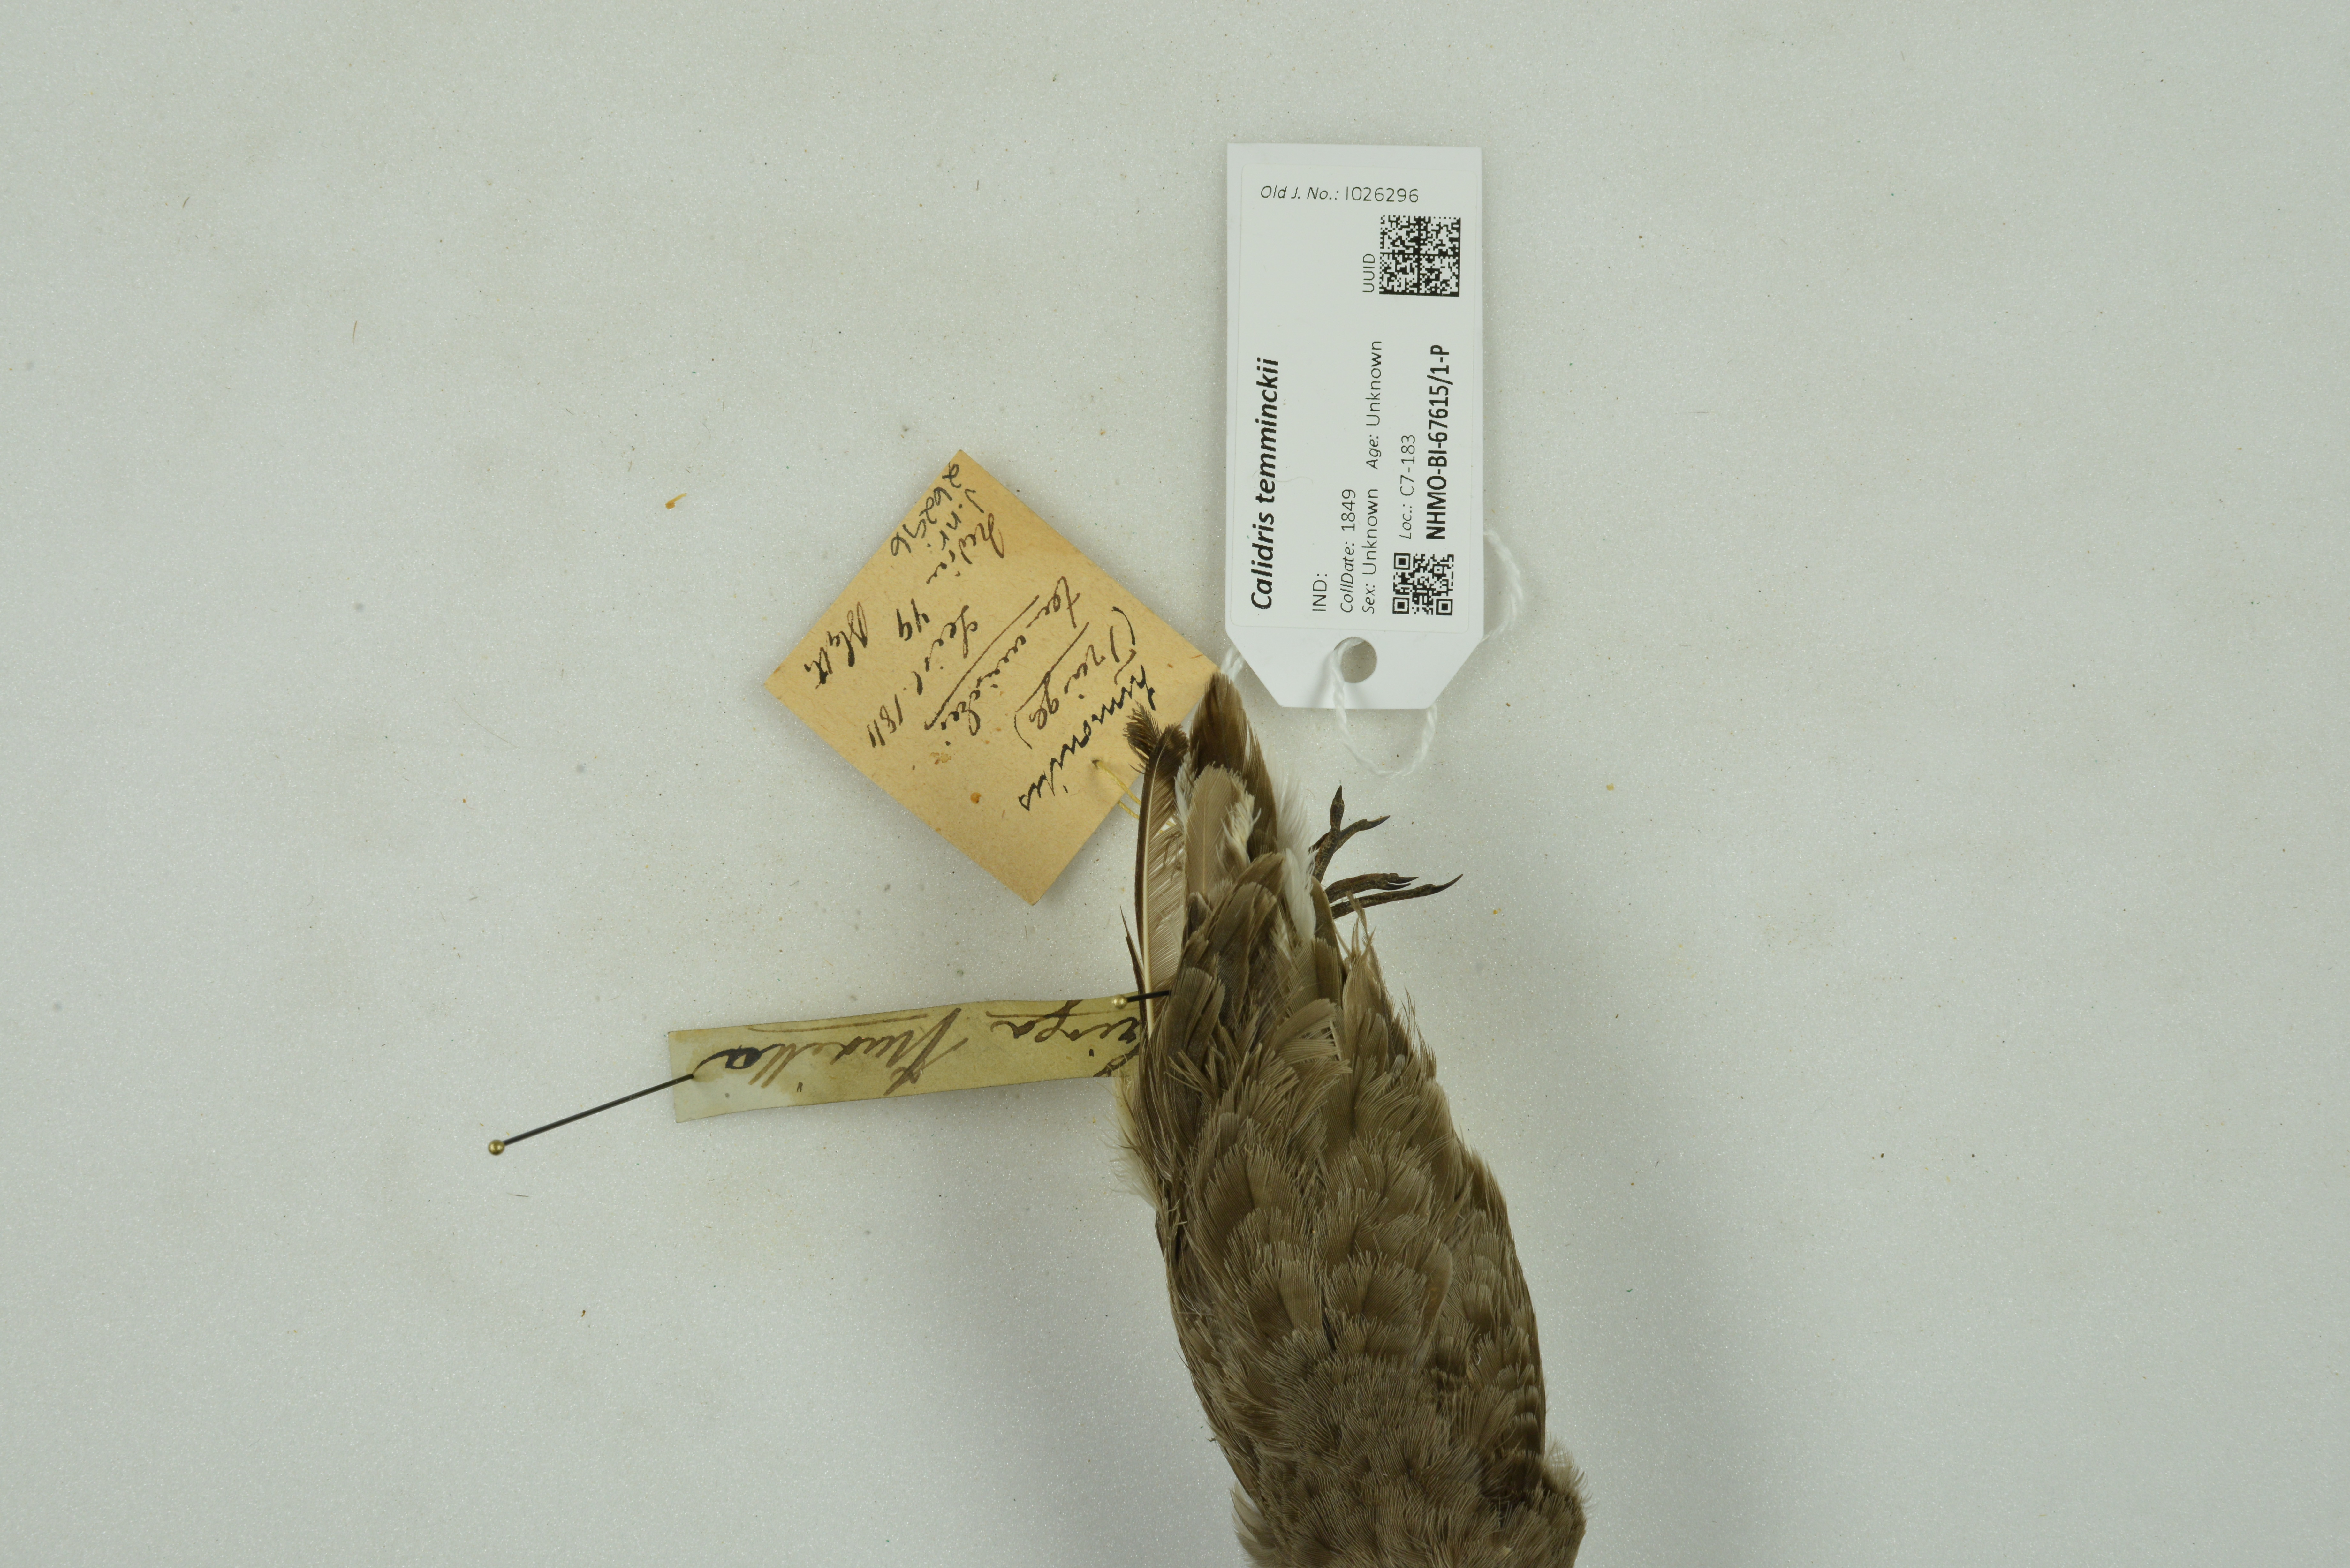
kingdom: Animalia
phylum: Chordata
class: Aves
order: Charadriiformes
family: Scolopacidae
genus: Calidris
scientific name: Calidris temminckii
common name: Temminck's stint
